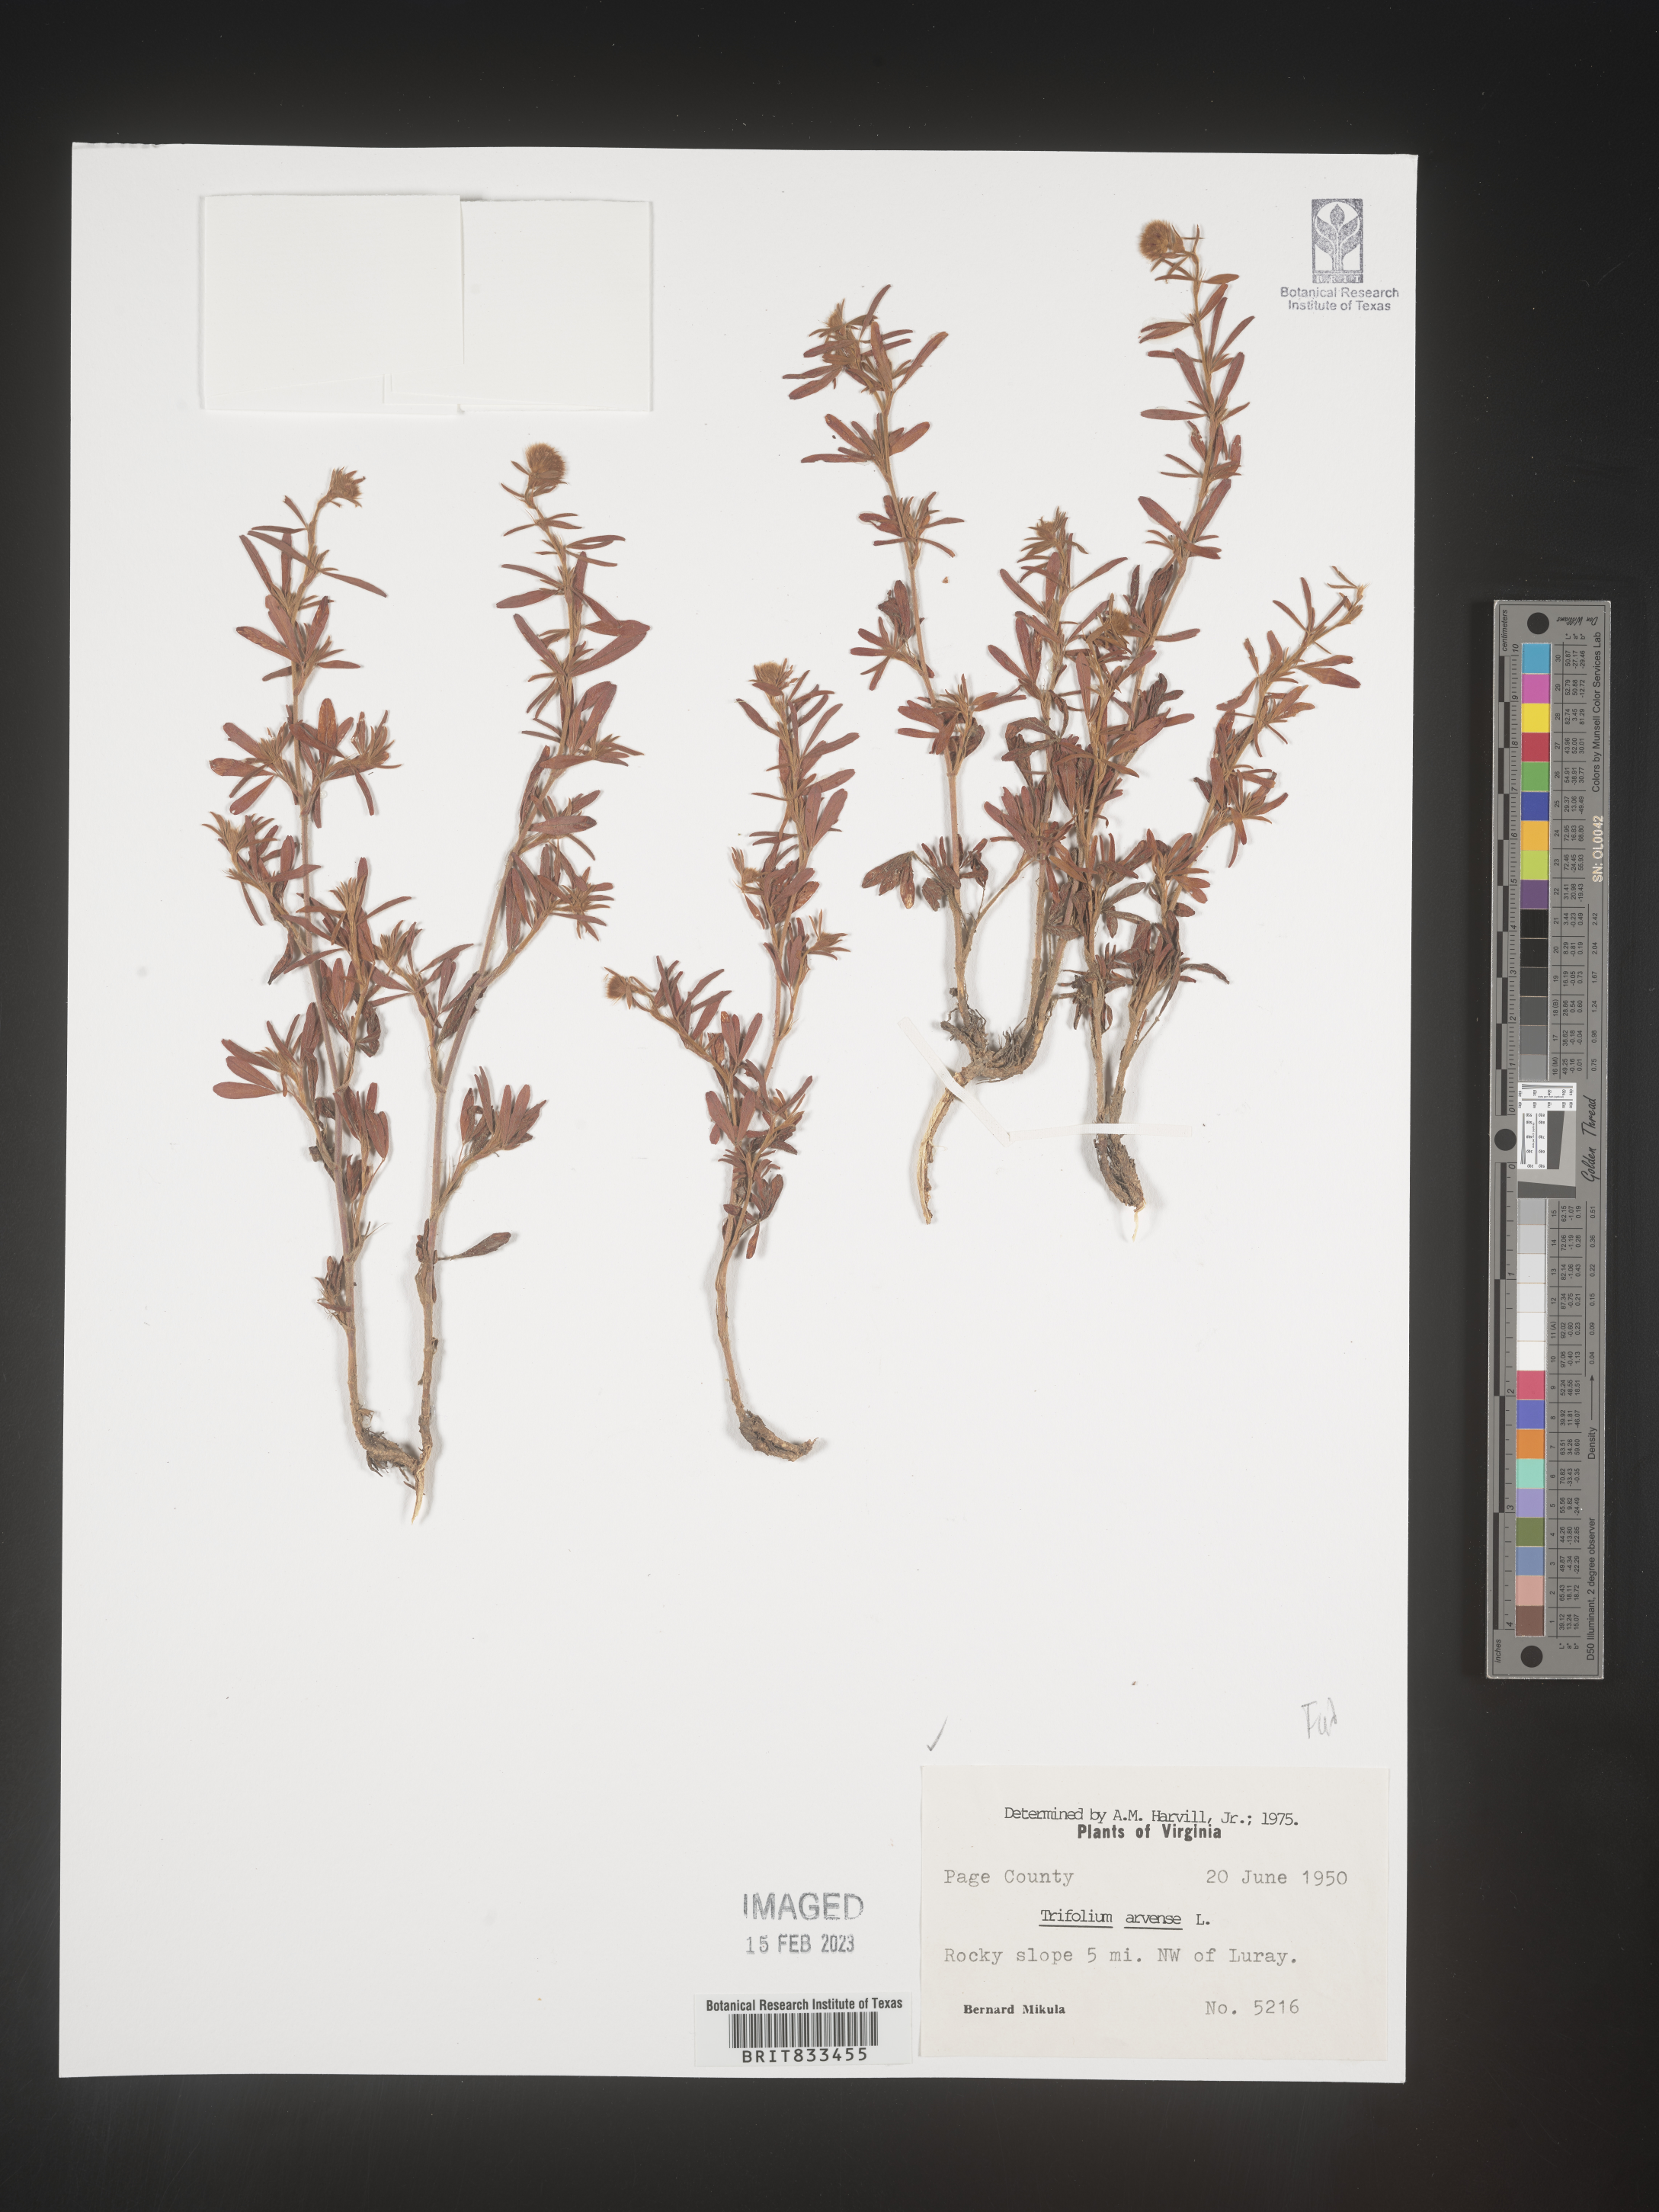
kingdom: Plantae
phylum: Tracheophyta
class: Magnoliopsida
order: Fabales
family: Fabaceae
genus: Trifolium
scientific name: Trifolium arvense
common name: Hare's-foot clover
